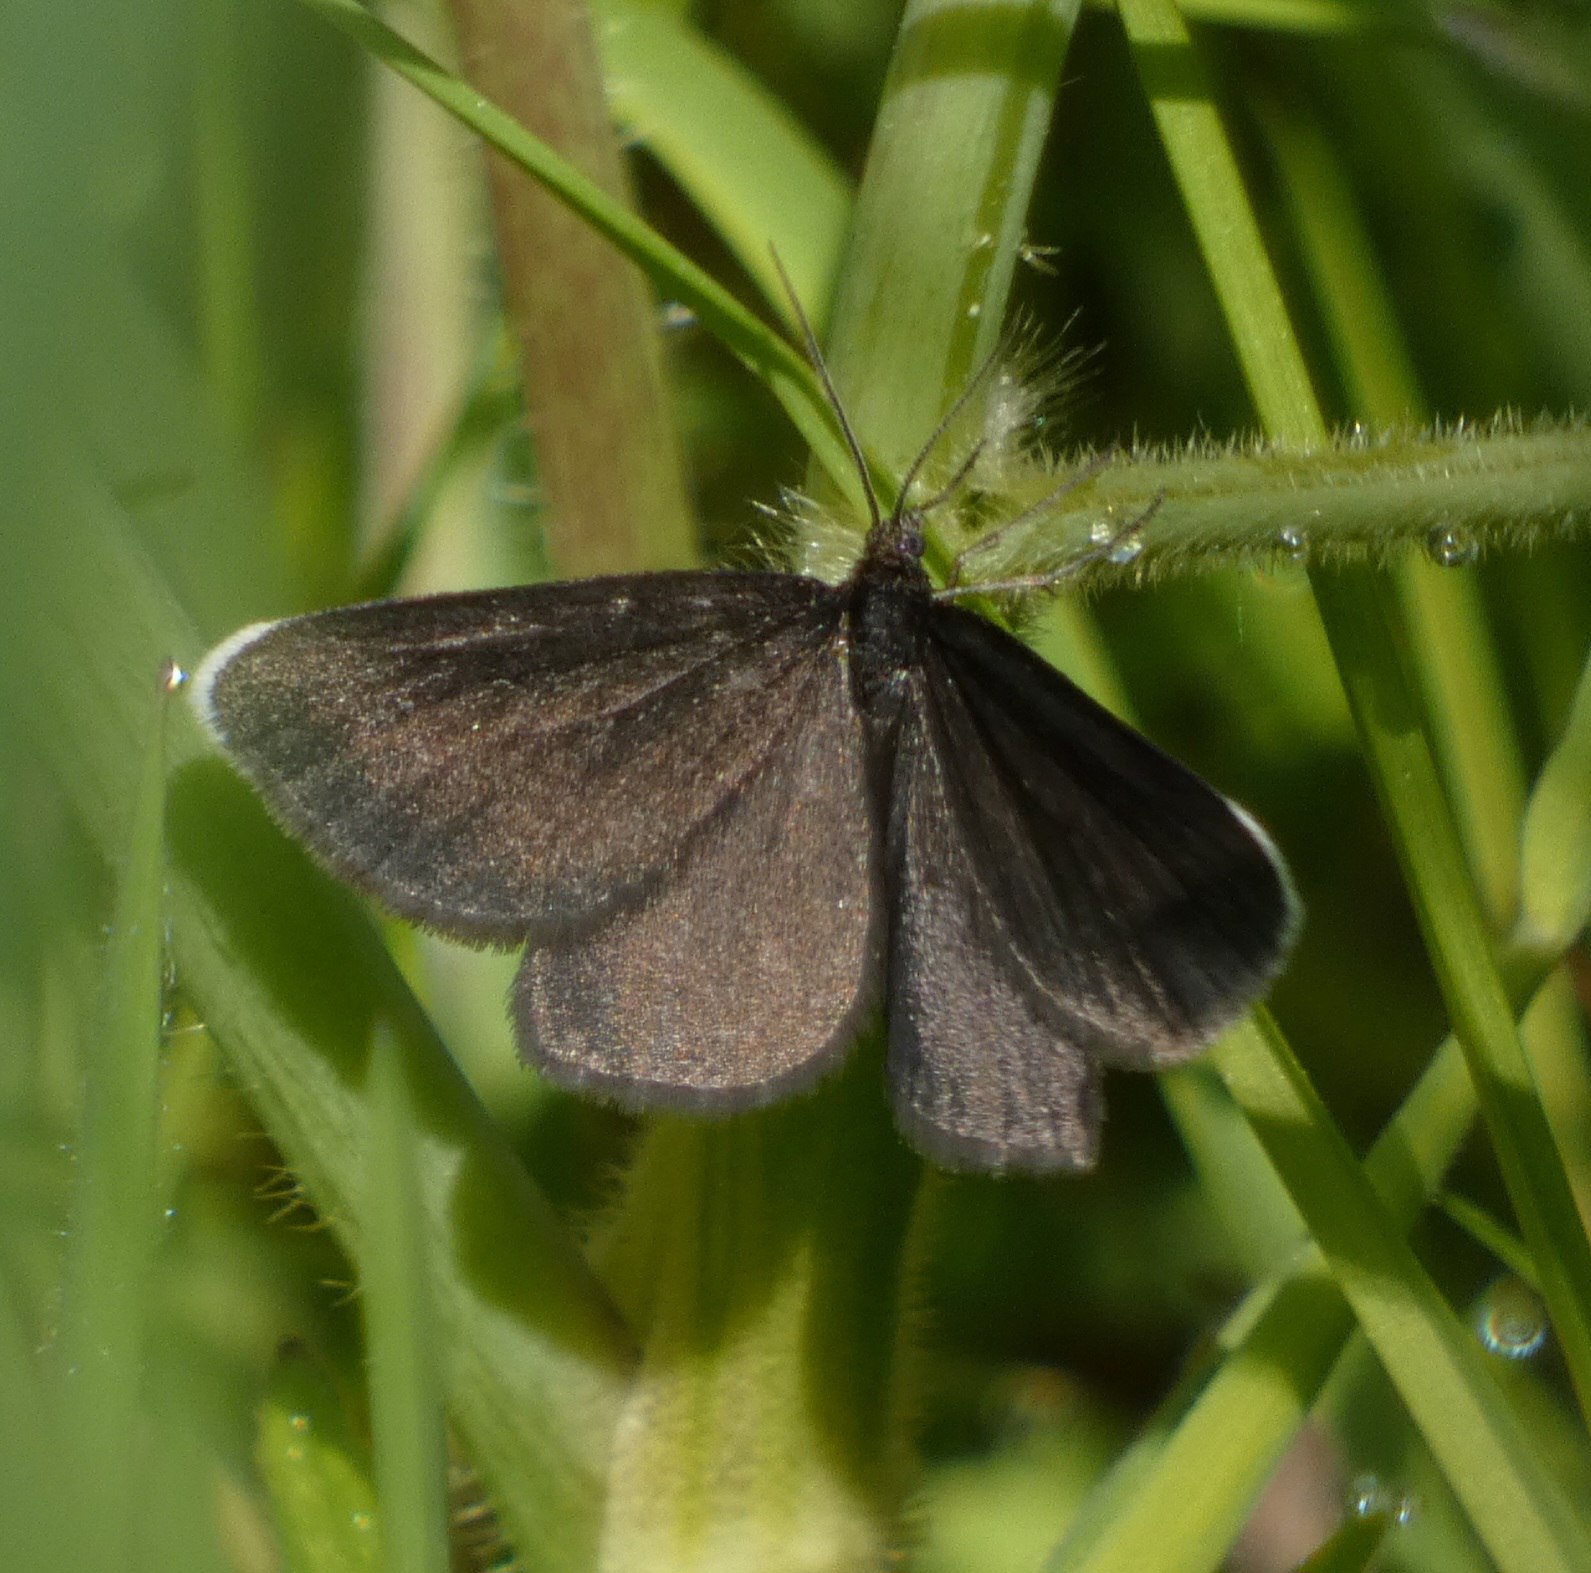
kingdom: Animalia
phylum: Arthropoda
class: Insecta
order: Lepidoptera
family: Geometridae
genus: Odezia
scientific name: Odezia atrata
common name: Sort måler
